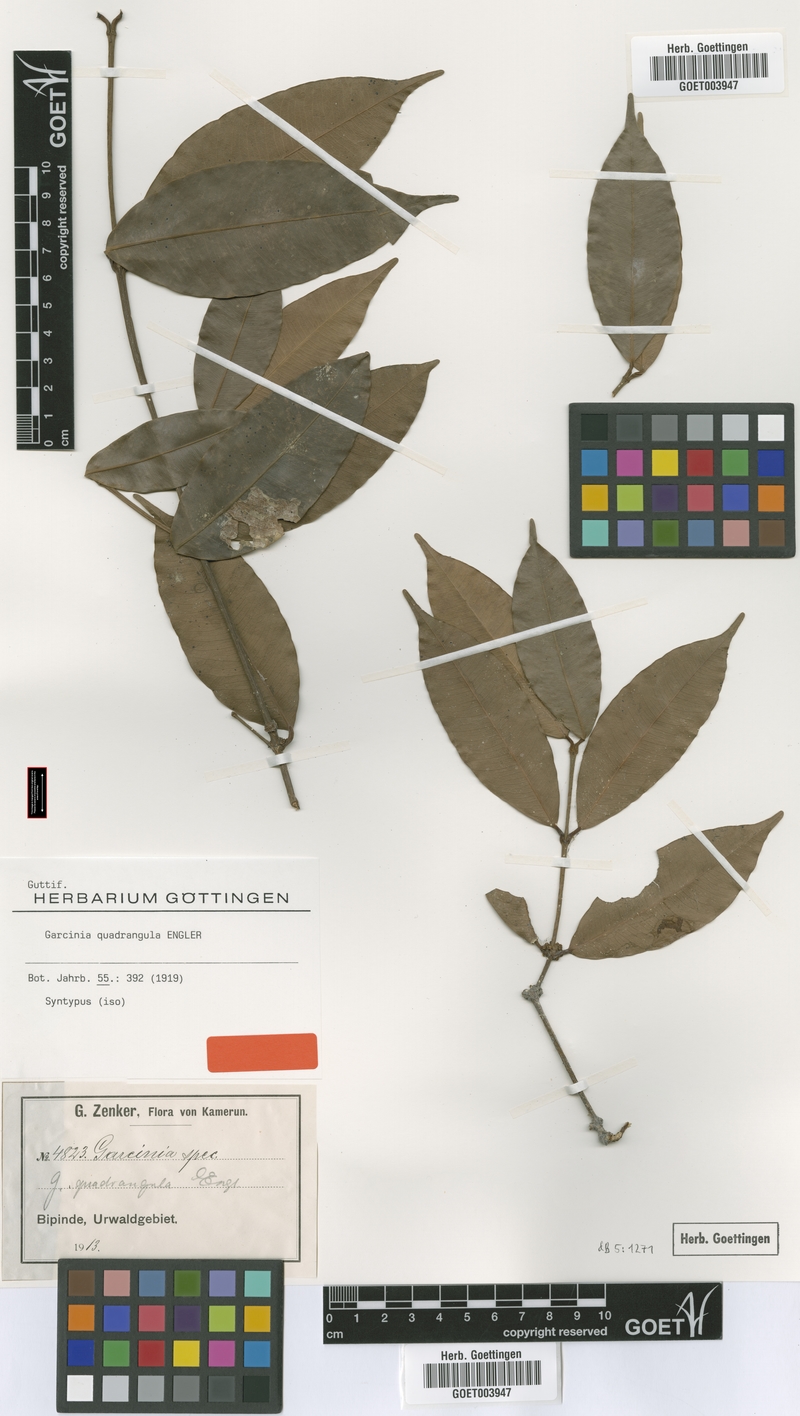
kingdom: Plantae
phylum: Tracheophyta
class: Magnoliopsida
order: Malpighiales
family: Clusiaceae
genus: Garcinia
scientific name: Garcinia ovalifolia
